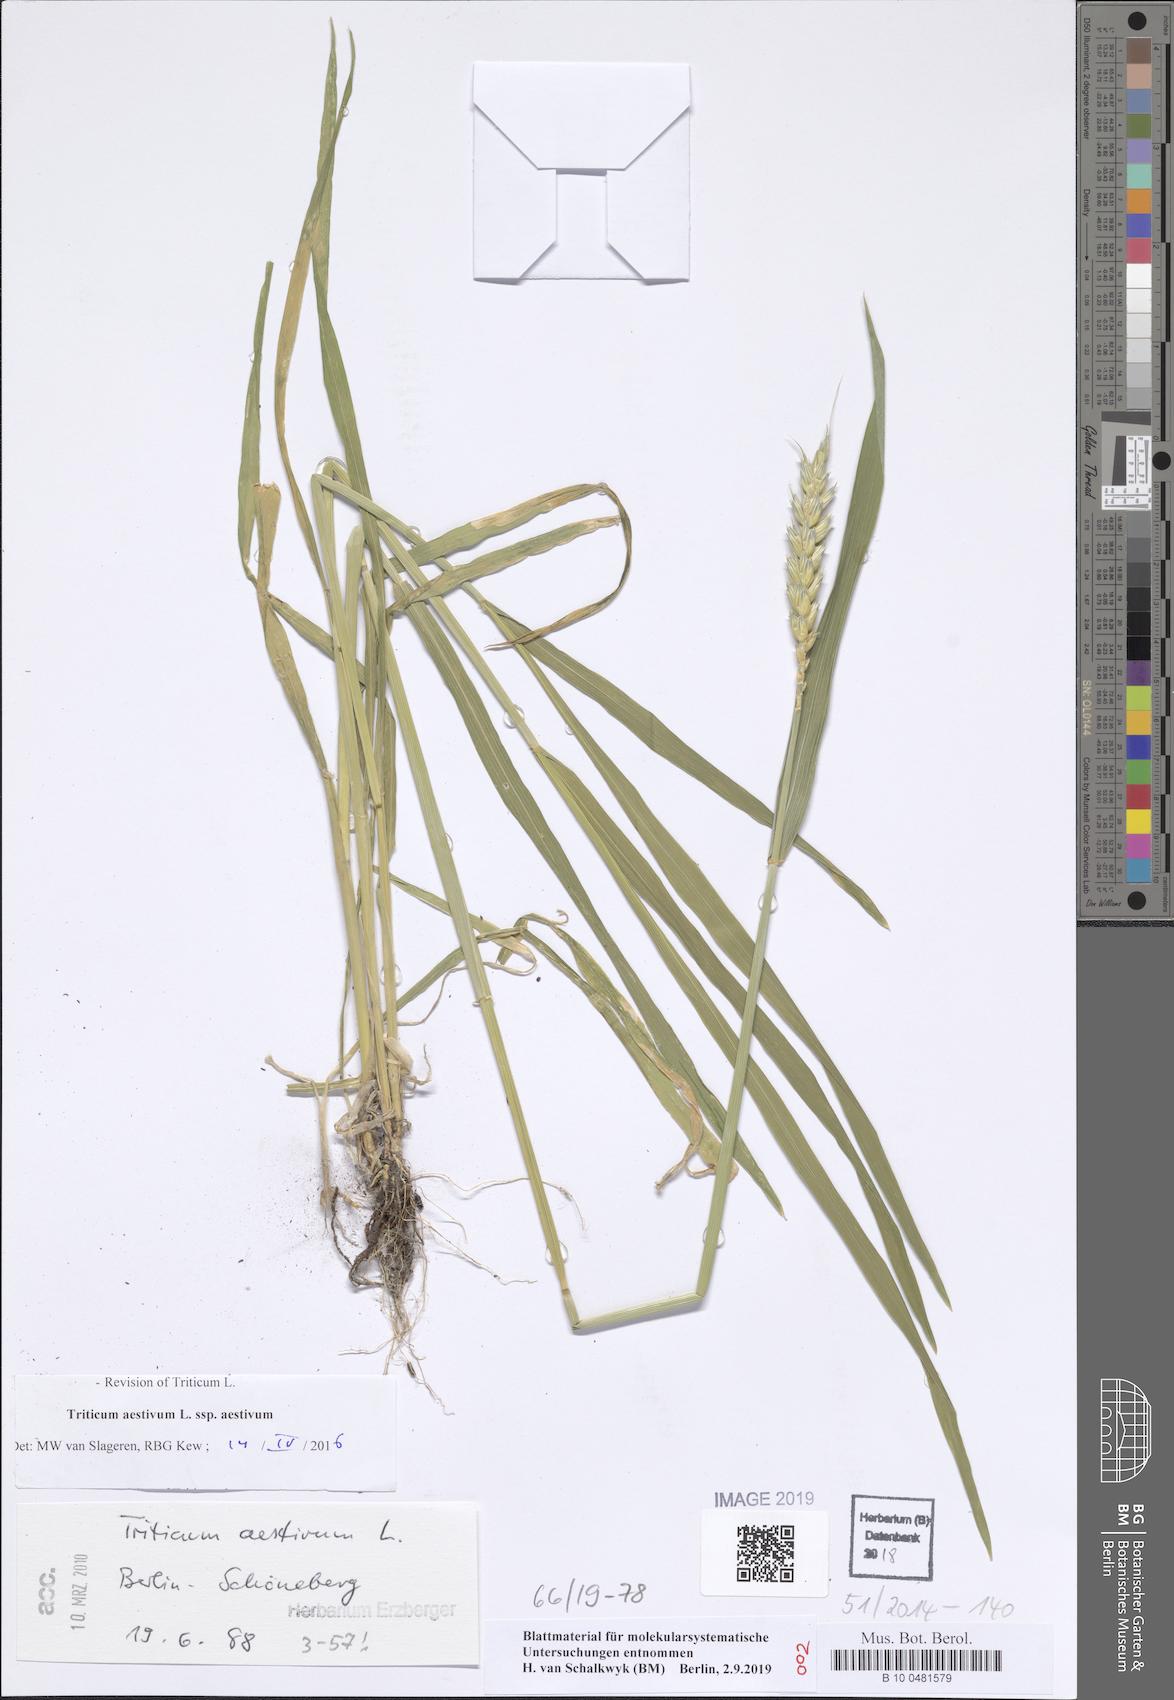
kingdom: Plantae
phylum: Tracheophyta
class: Liliopsida
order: Poales
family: Poaceae
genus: Triticum
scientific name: Triticum aestivum
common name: Common wheat
